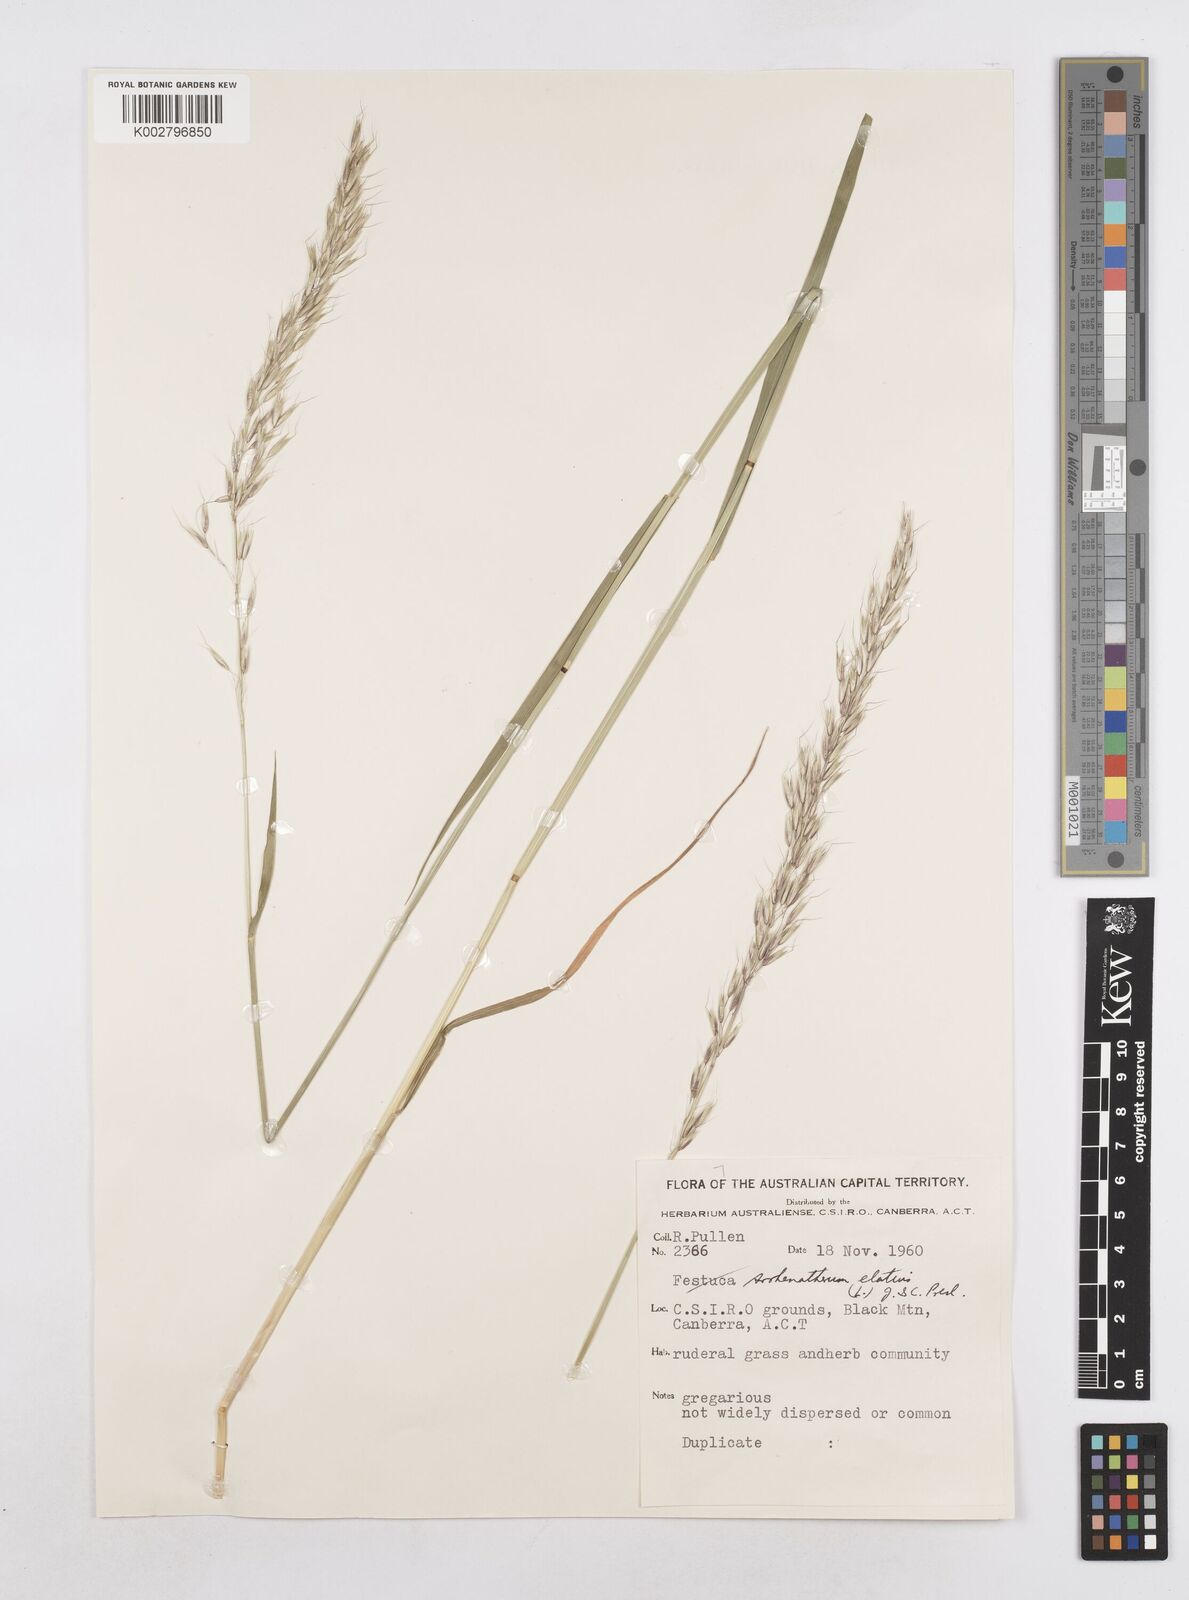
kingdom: Plantae
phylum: Tracheophyta
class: Liliopsida
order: Poales
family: Poaceae
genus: Arrhenatherum
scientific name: Arrhenatherum elatius
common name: Tall oatgrass
